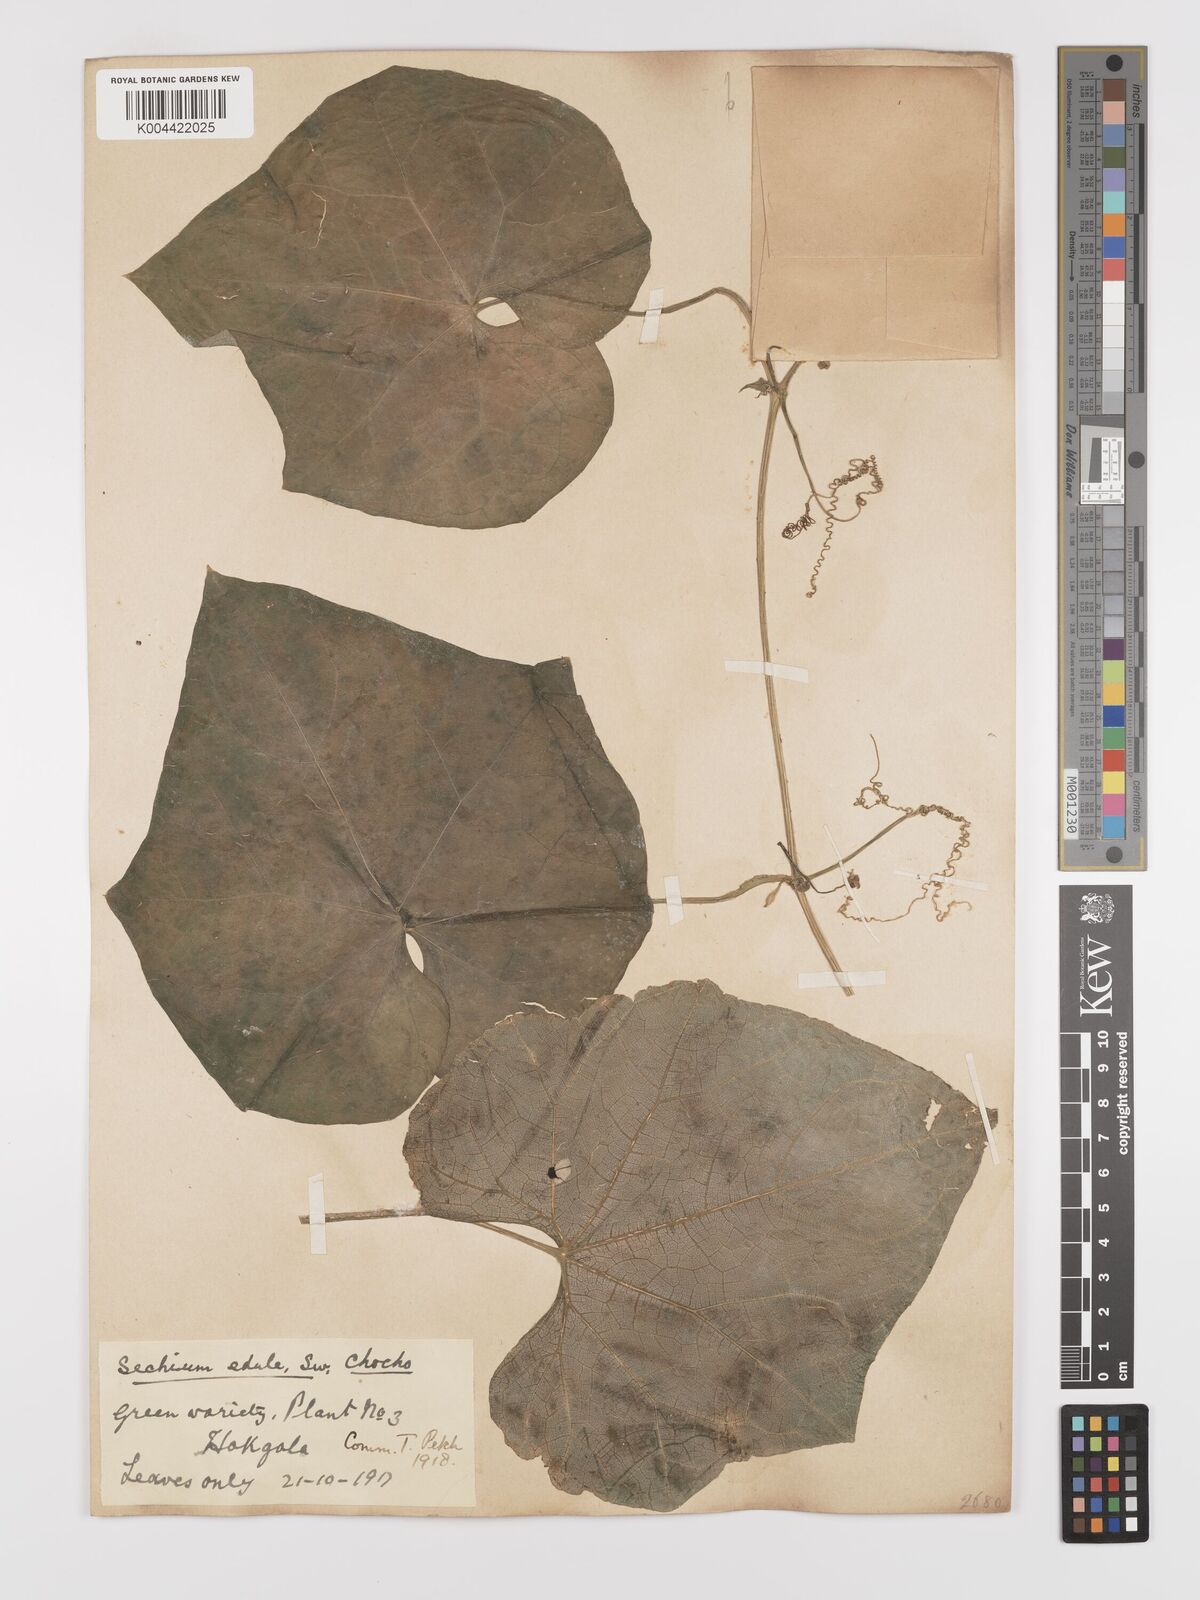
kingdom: Plantae
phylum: Tracheophyta
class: Magnoliopsida
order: Cucurbitales
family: Cucurbitaceae
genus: Sechium
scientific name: Sechium edule
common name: Chayote
